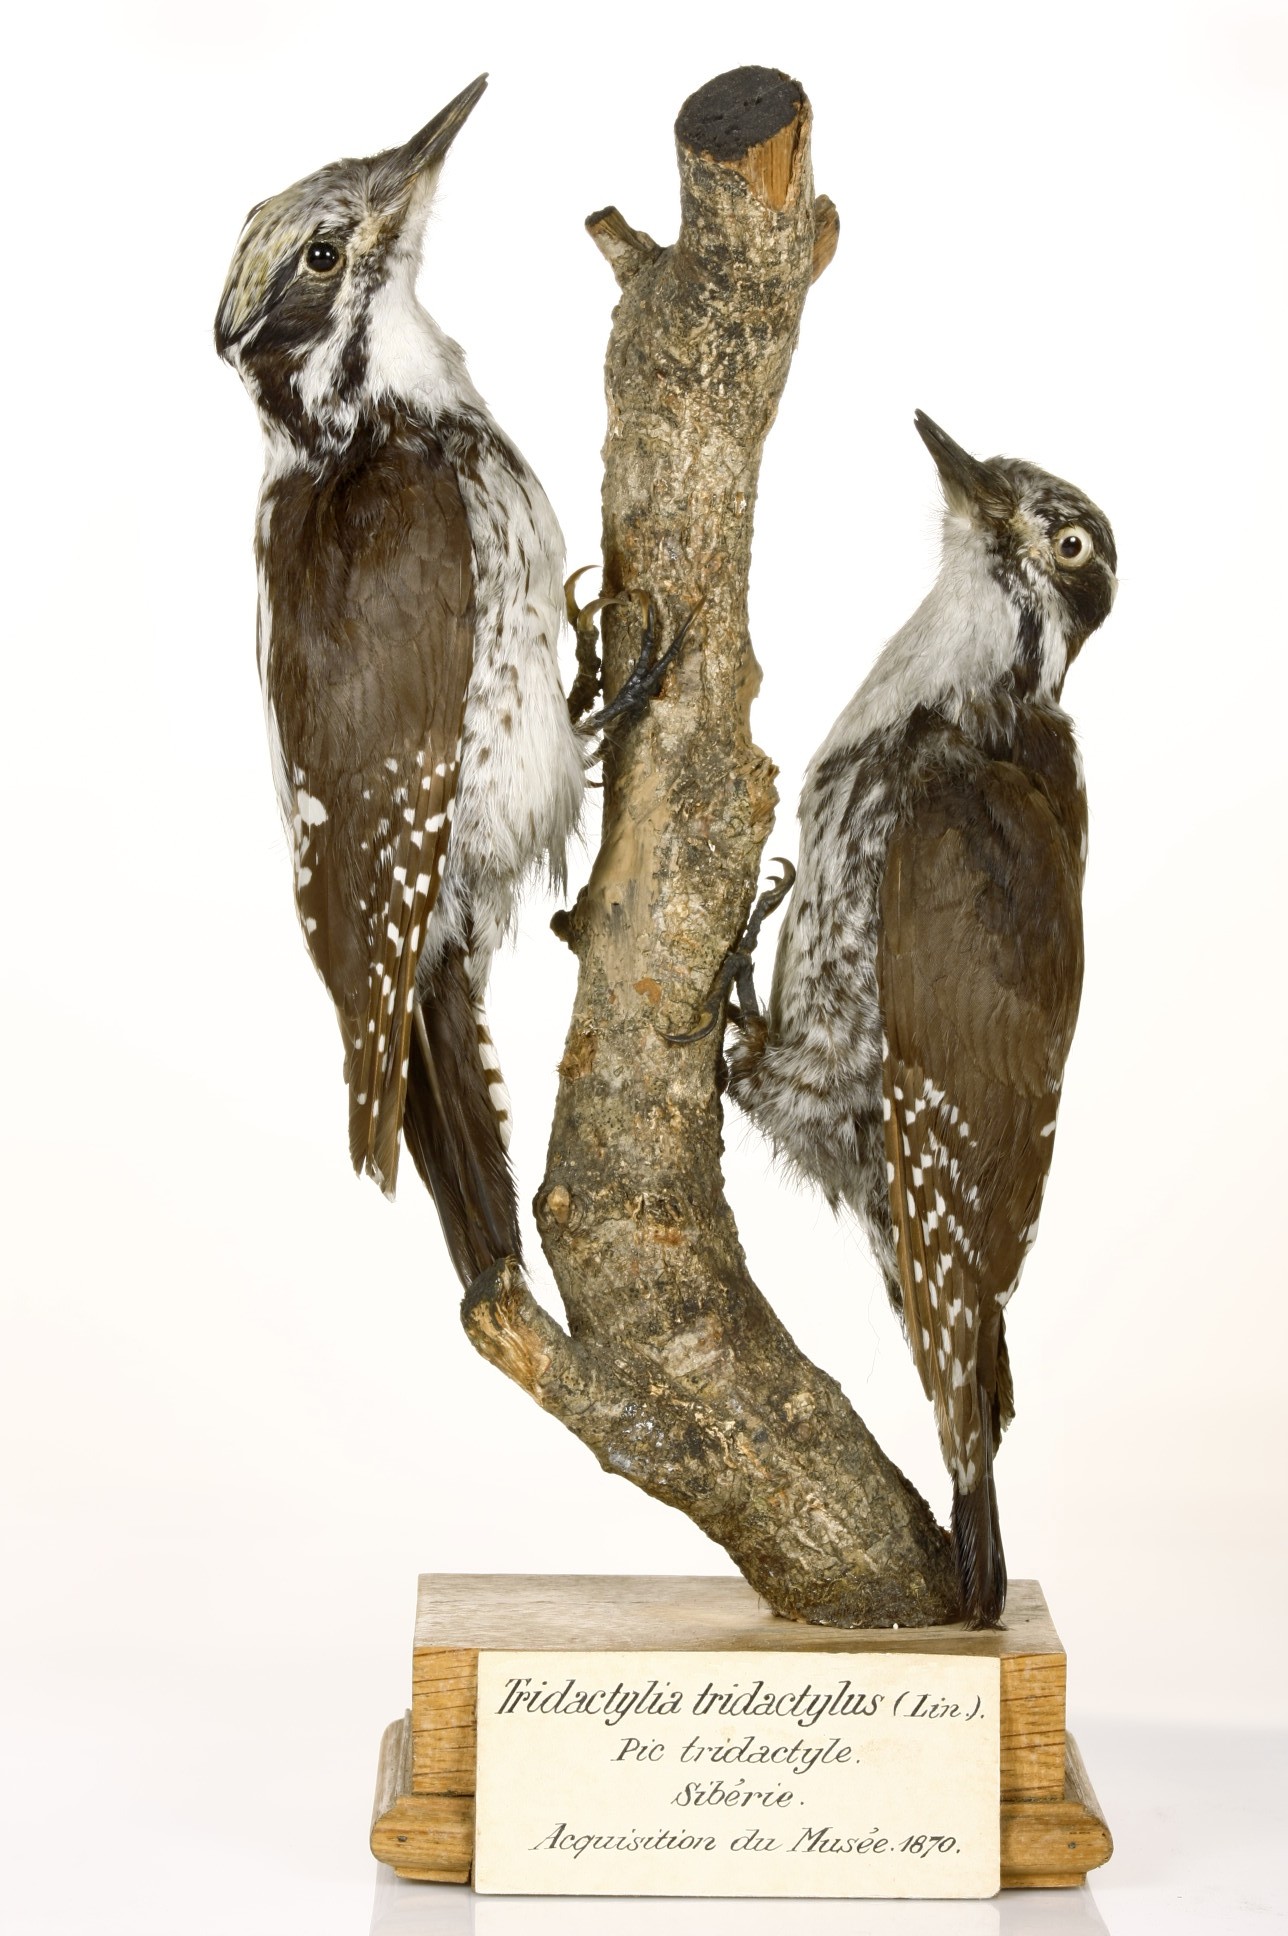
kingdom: Animalia
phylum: Chordata
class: Aves
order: Piciformes
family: Picidae
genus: Picoides
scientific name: Picoides tridactylus
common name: Eurasian three-toed woodpecker
